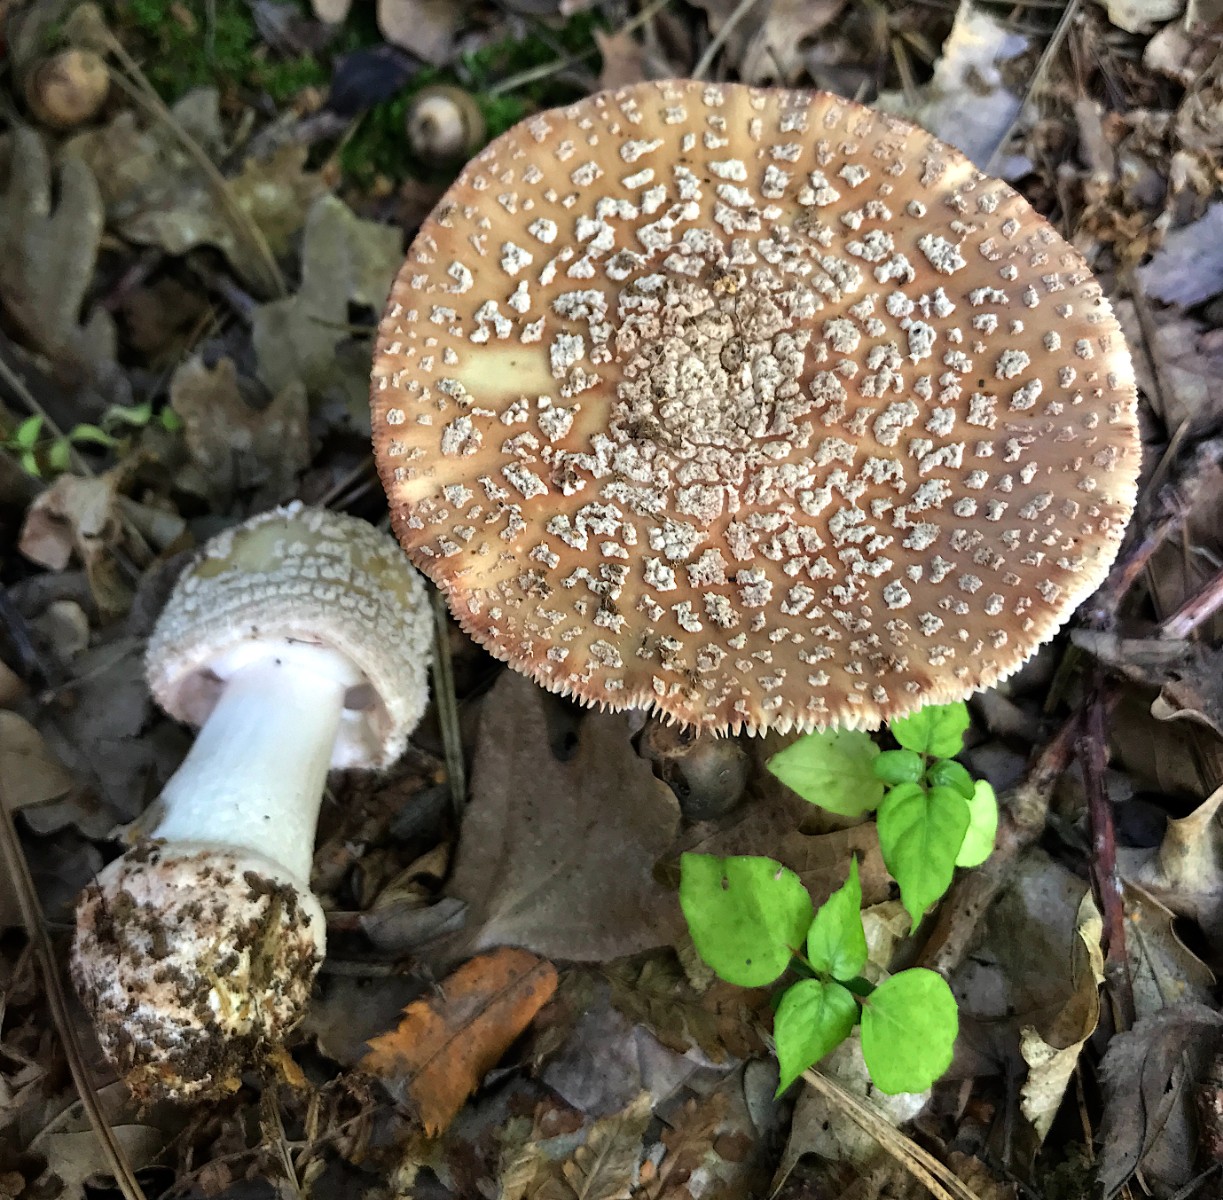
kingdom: Fungi
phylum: Basidiomycota
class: Agaricomycetes
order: Agaricales
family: Amanitaceae
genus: Amanita
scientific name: Amanita rubescens
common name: rødmende fluesvamp
